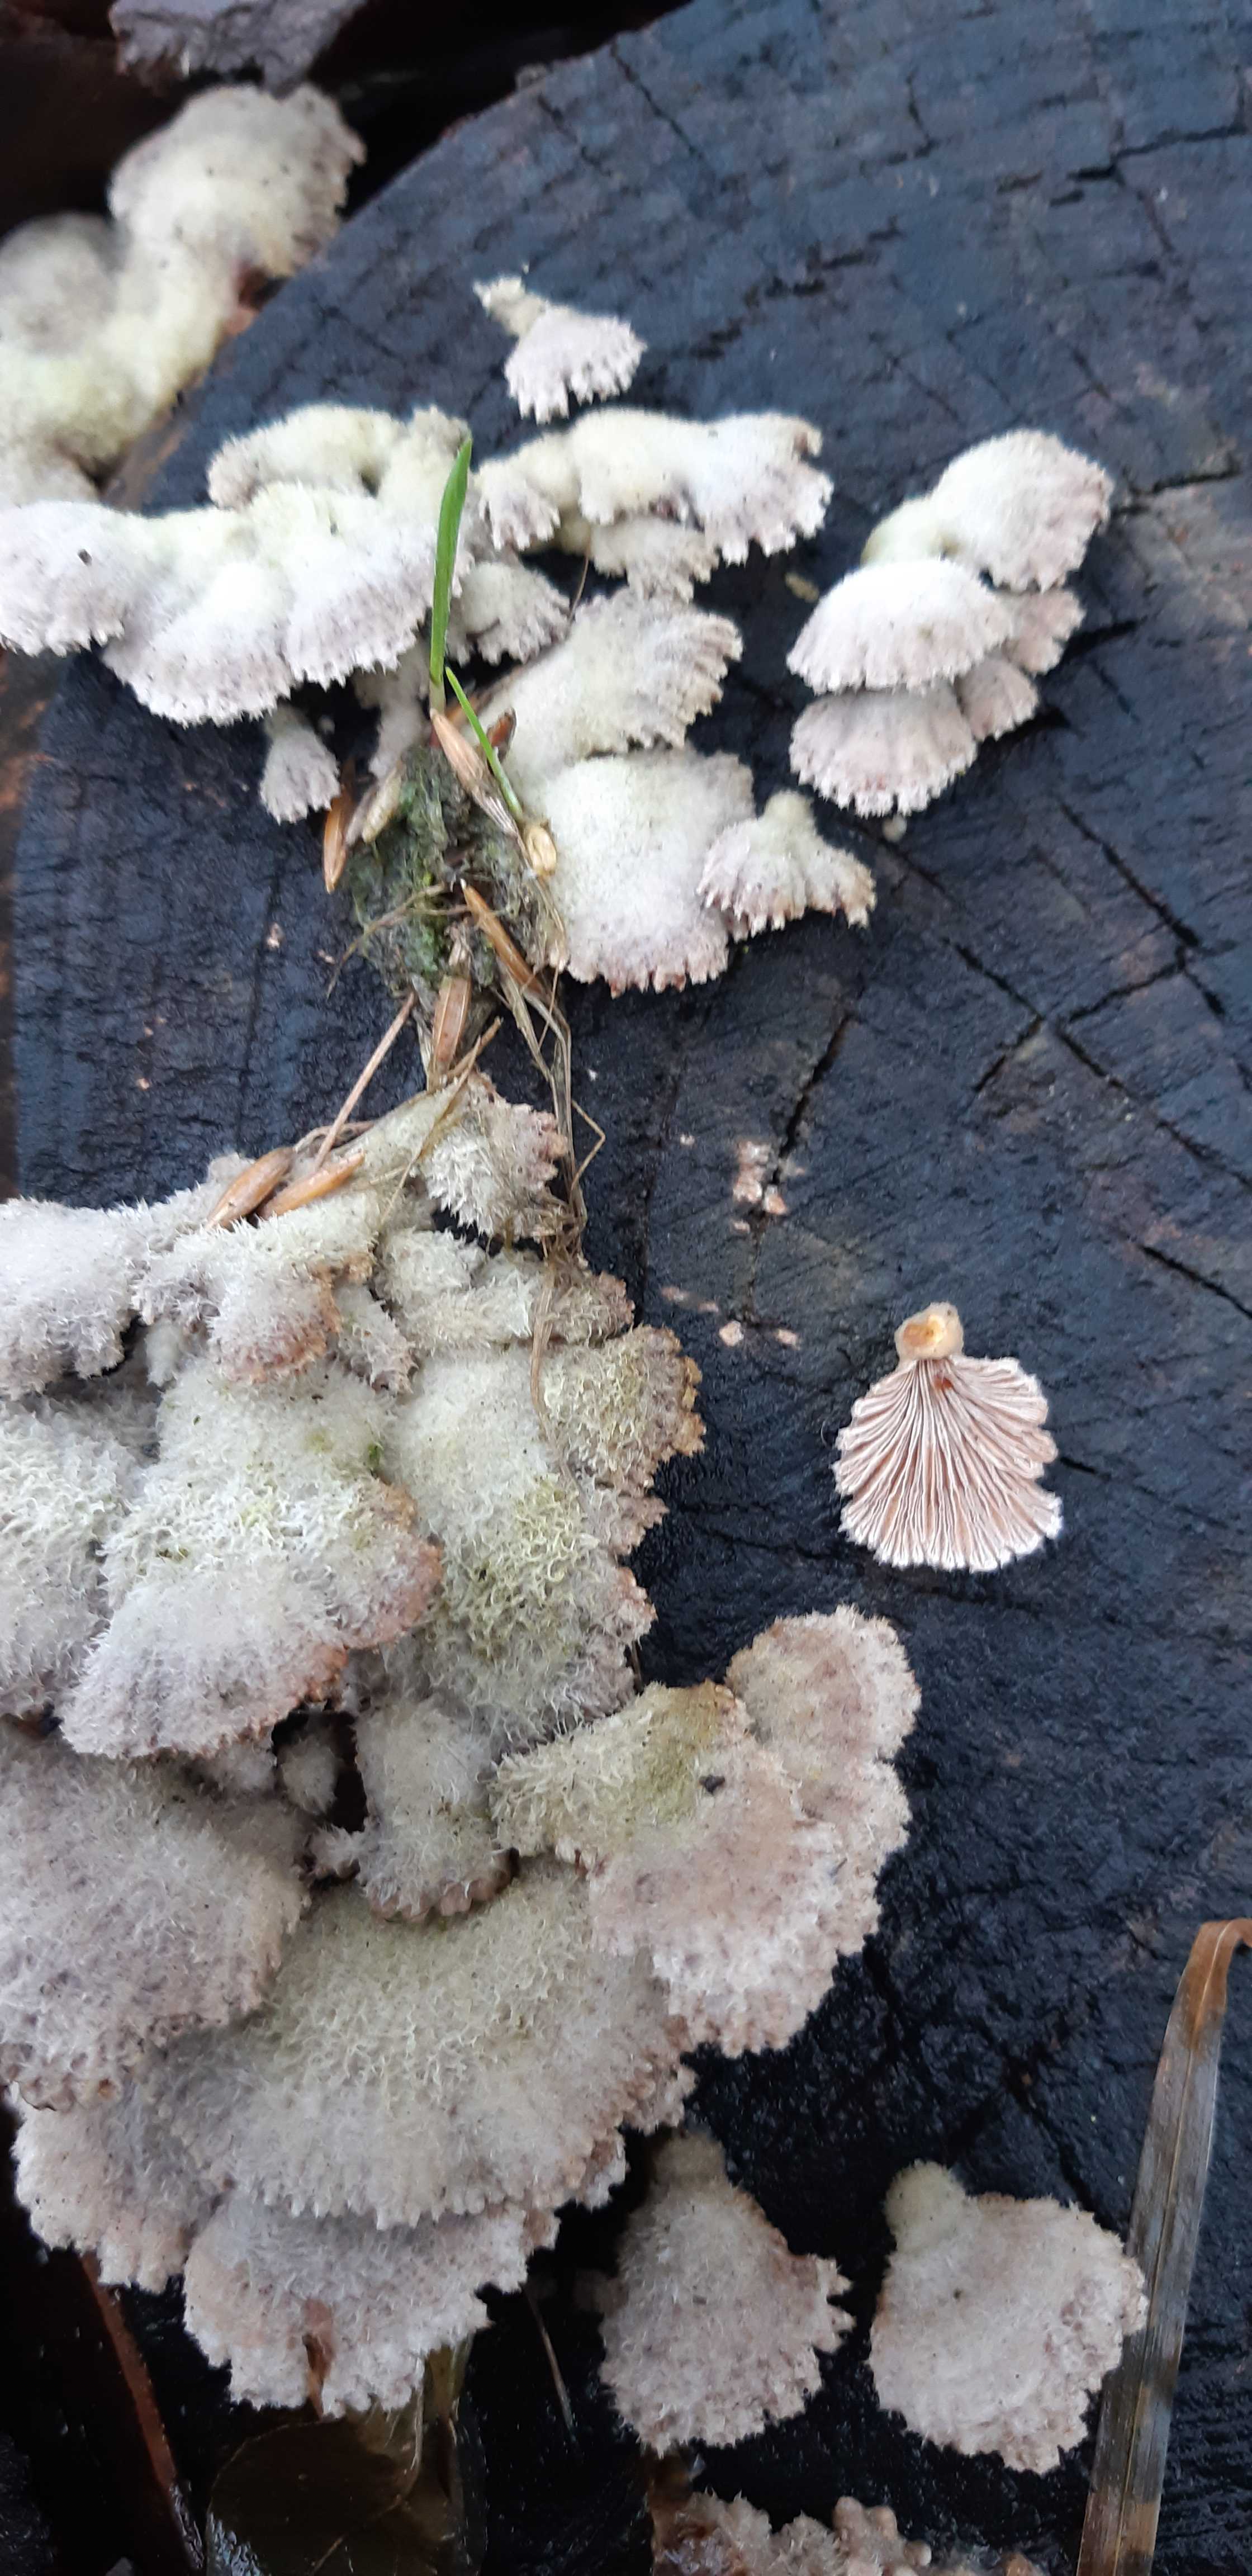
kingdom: Fungi
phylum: Basidiomycota
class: Agaricomycetes
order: Agaricales
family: Schizophyllaceae
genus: Schizophyllum
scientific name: Schizophyllum commune
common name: kløvblad
